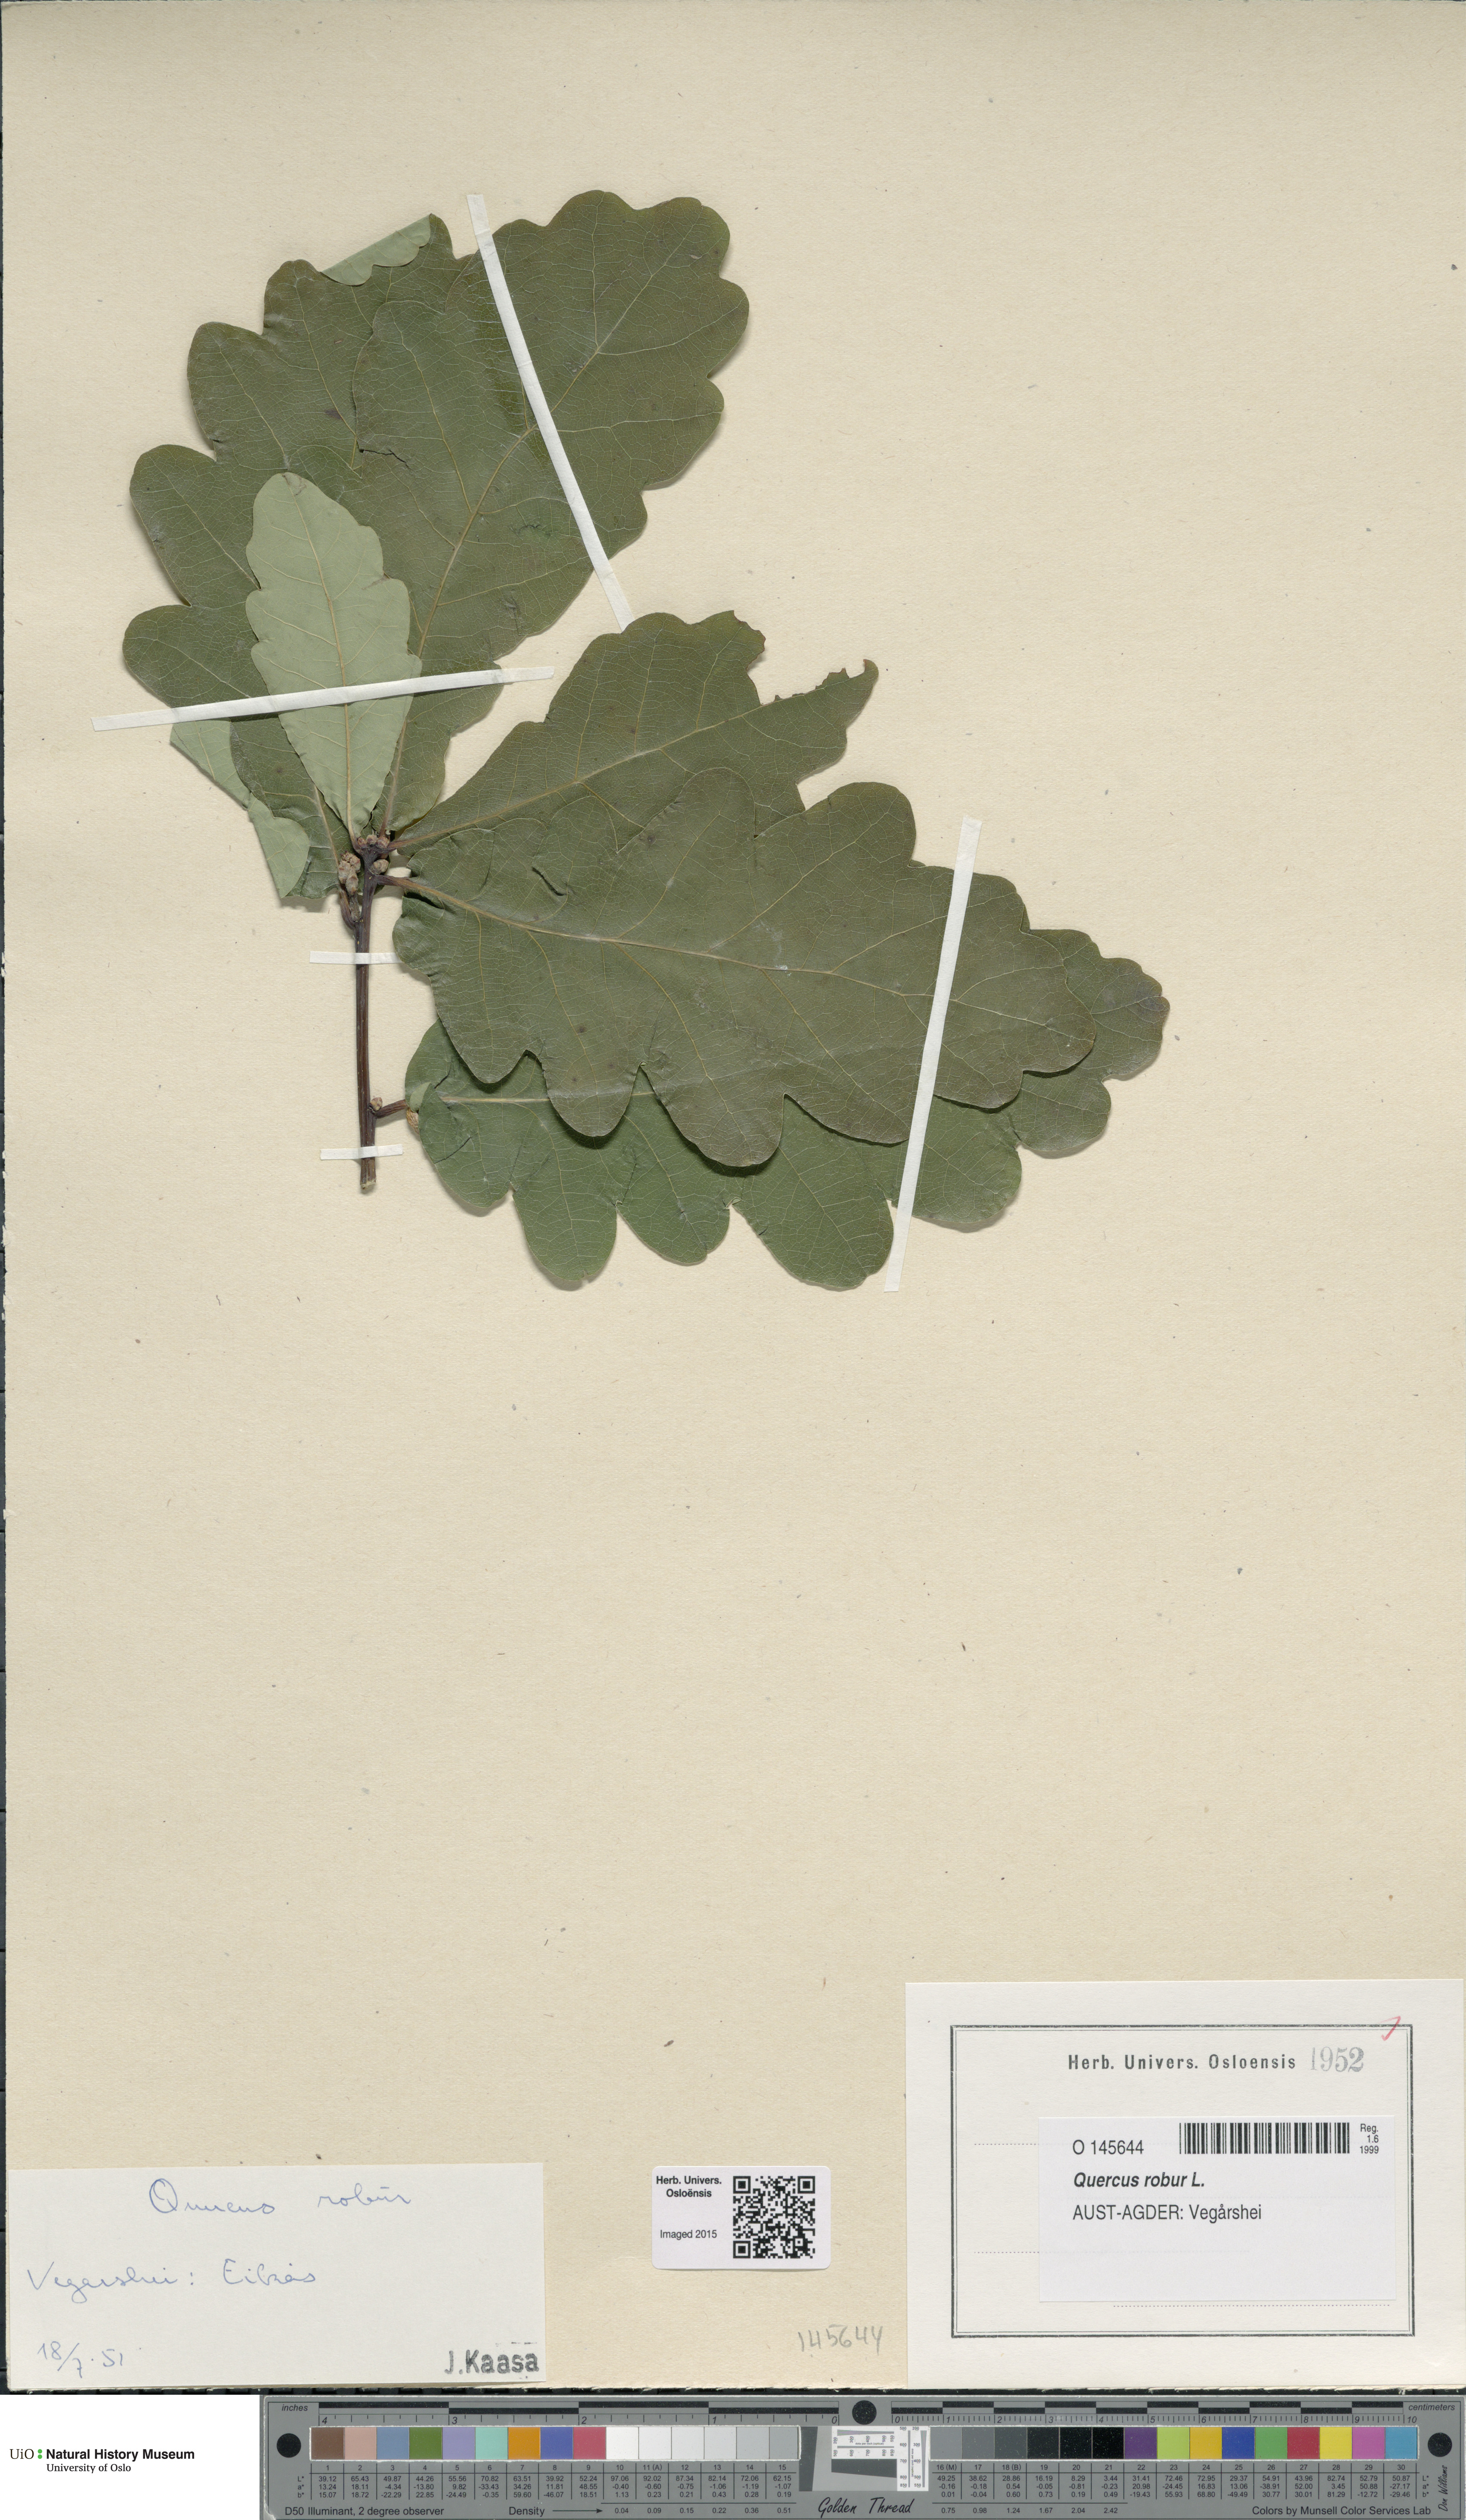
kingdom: Plantae
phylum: Tracheophyta
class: Magnoliopsida
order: Fagales
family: Fagaceae
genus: Quercus
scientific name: Quercus robur
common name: Pedunculate oak
